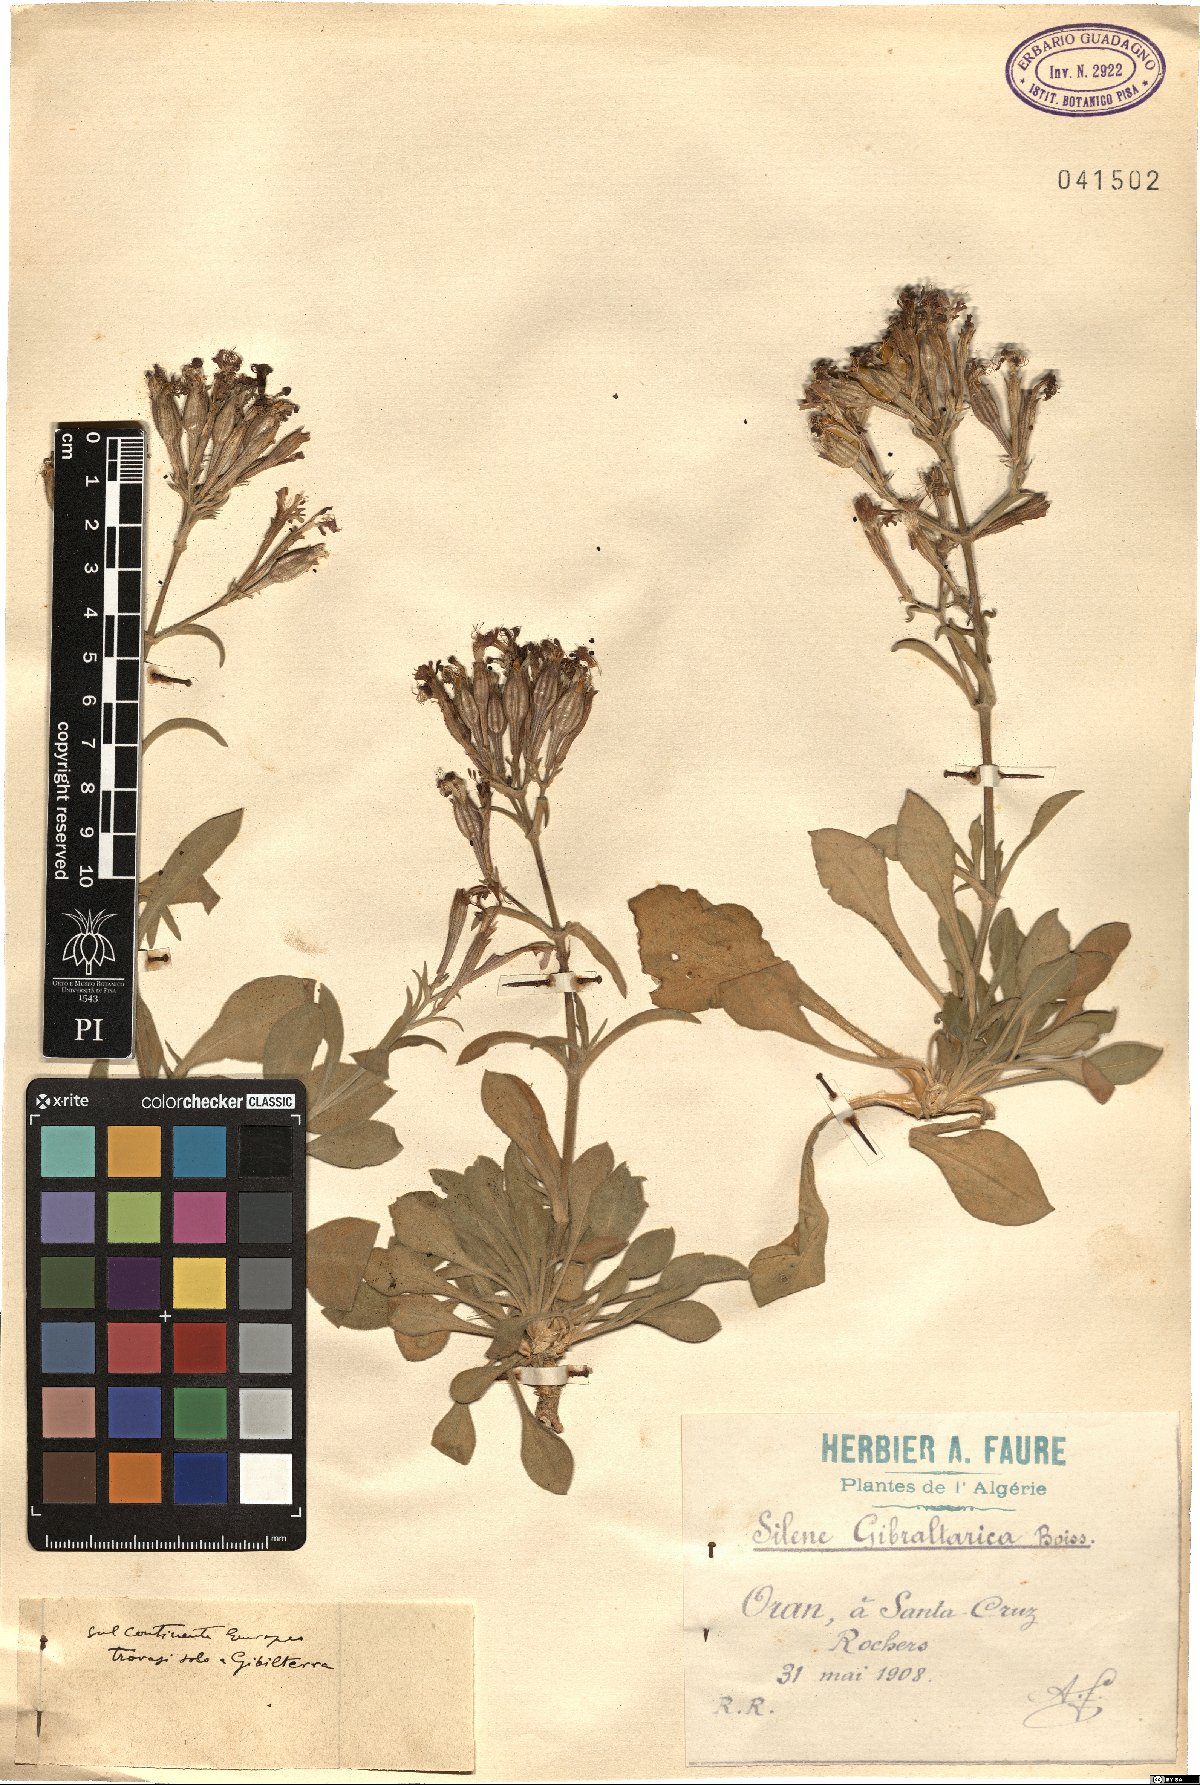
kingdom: Plantae
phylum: Tracheophyta
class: Magnoliopsida
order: Caryophyllales
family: Caryophyllaceae
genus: Silene
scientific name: Silene tomentosa
